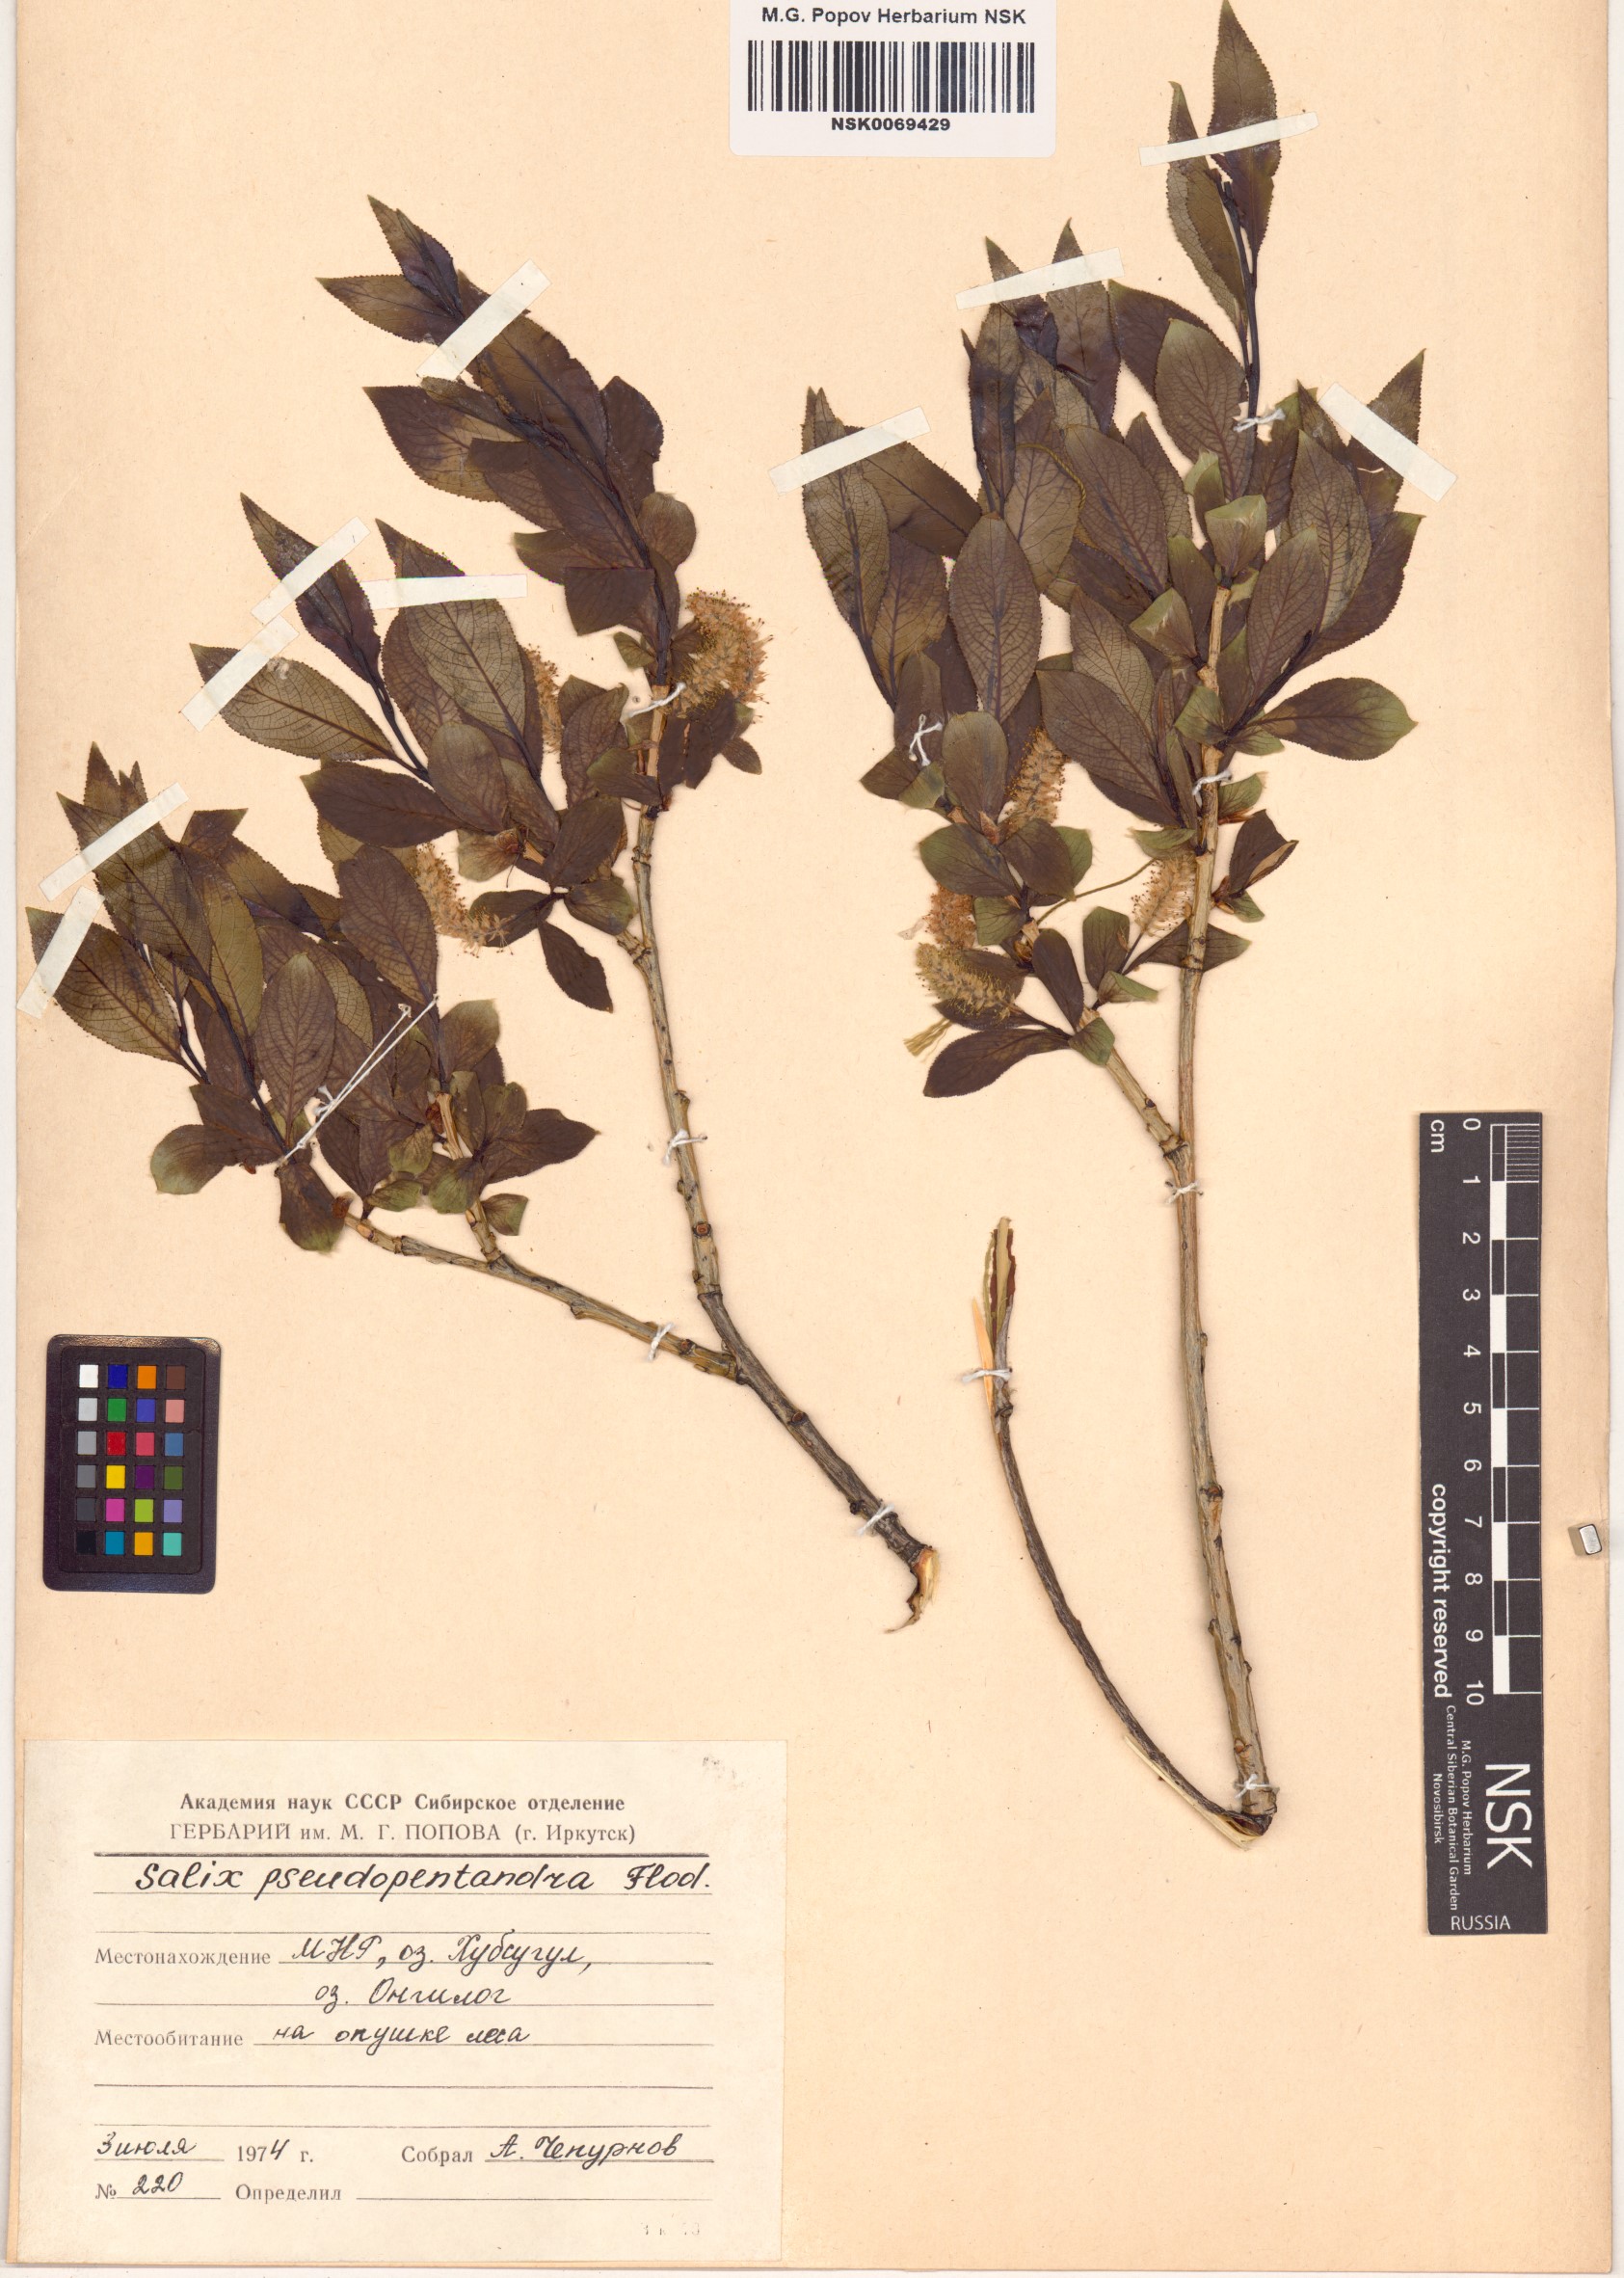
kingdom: Plantae
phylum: Tracheophyta
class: Magnoliopsida
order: Malpighiales
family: Salicaceae
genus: Salix
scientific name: Salix pseudopentandra
